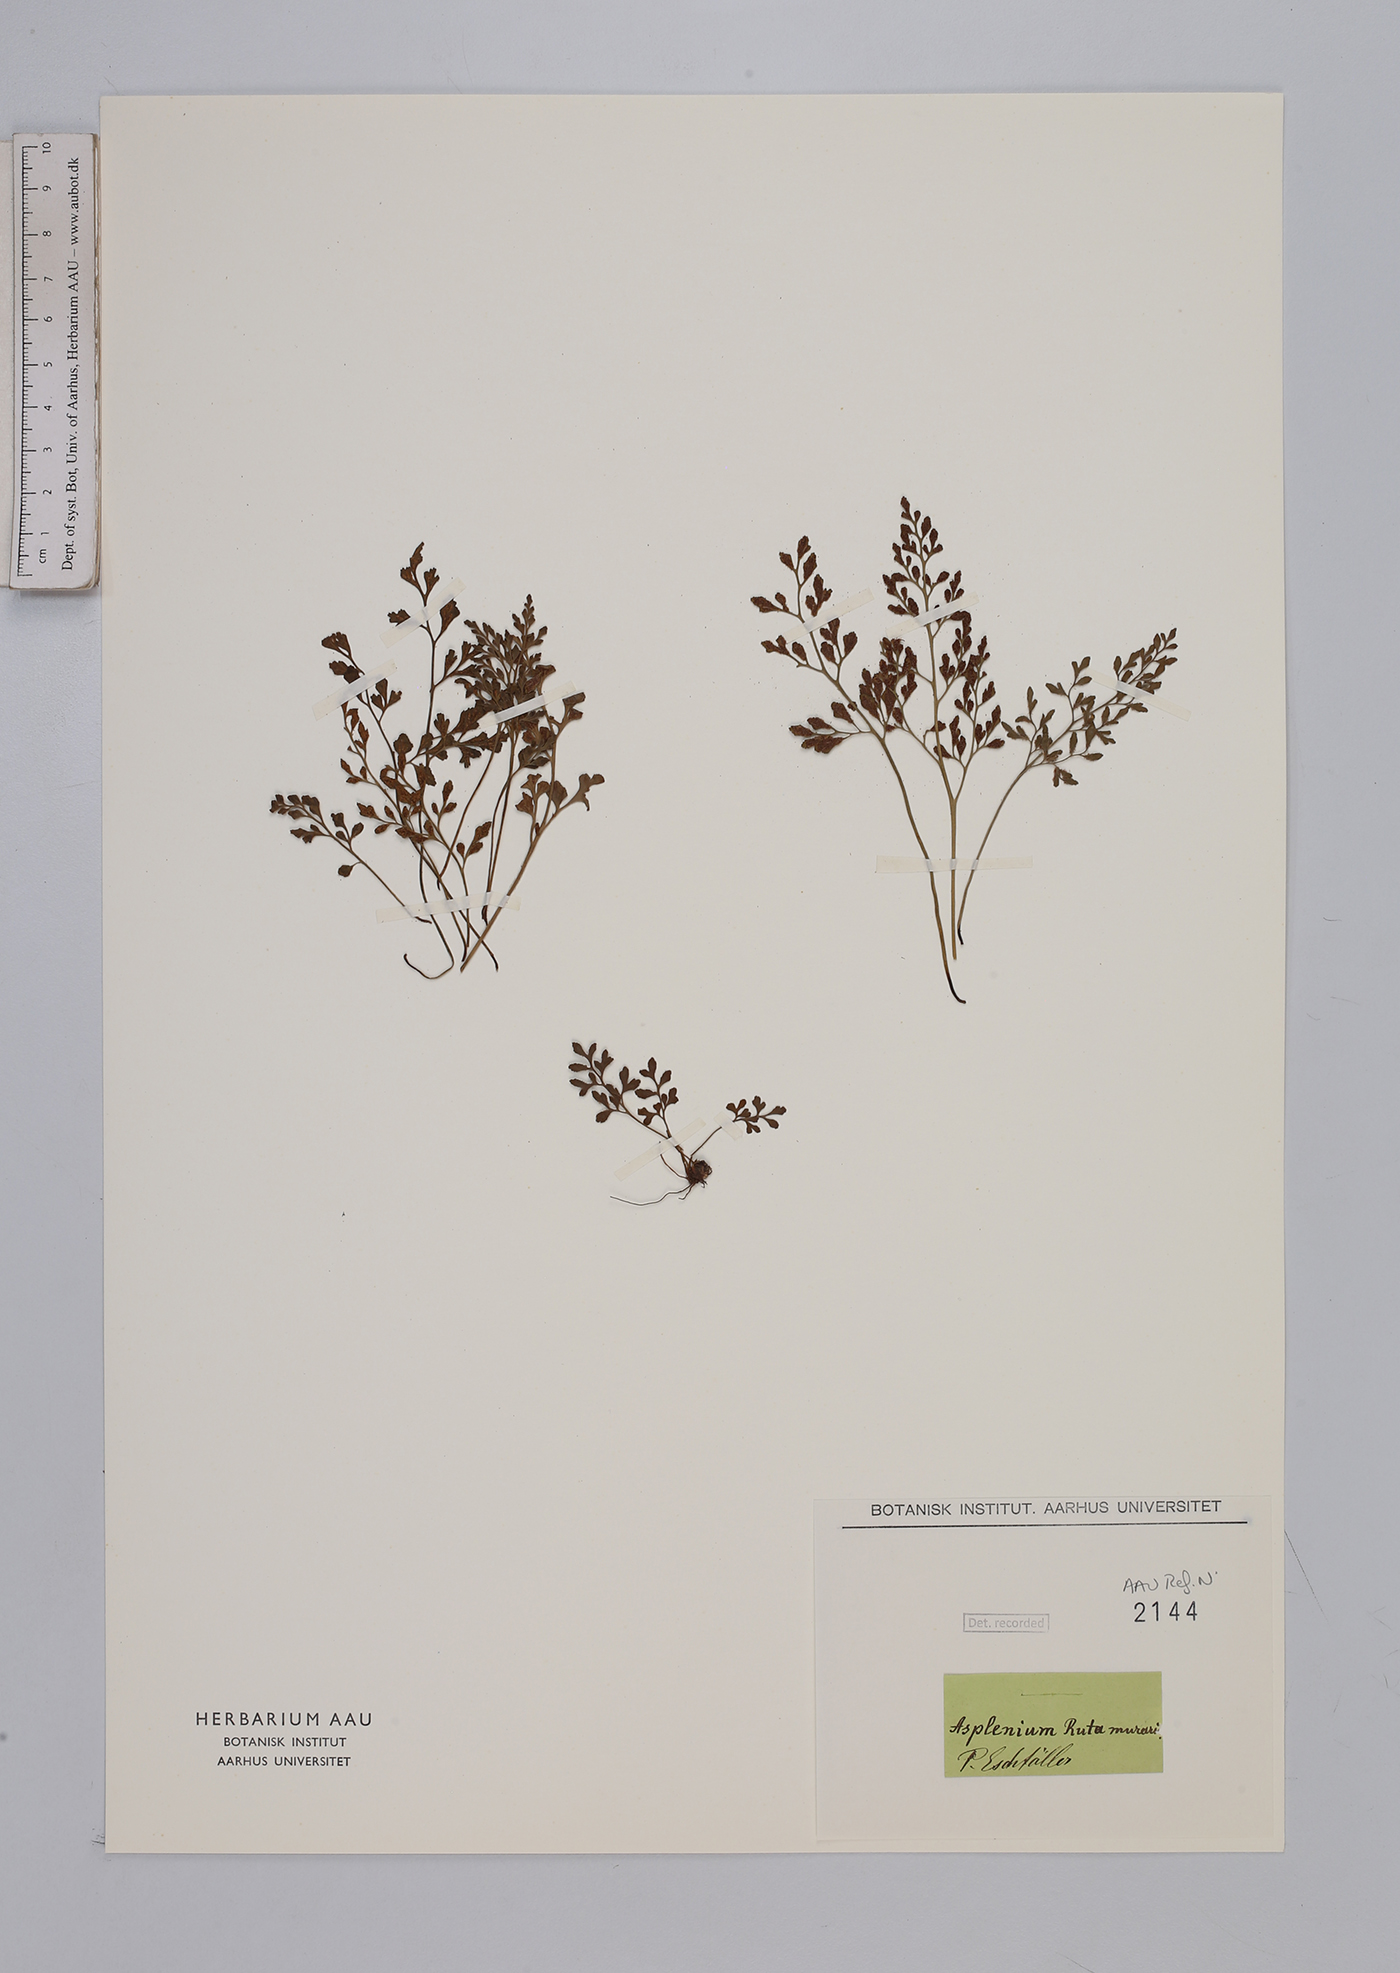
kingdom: Plantae
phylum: Tracheophyta
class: Polypodiopsida
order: Polypodiales
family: Aspleniaceae
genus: Asplenium
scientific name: Asplenium ruta-muraria
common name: Wall-rue
